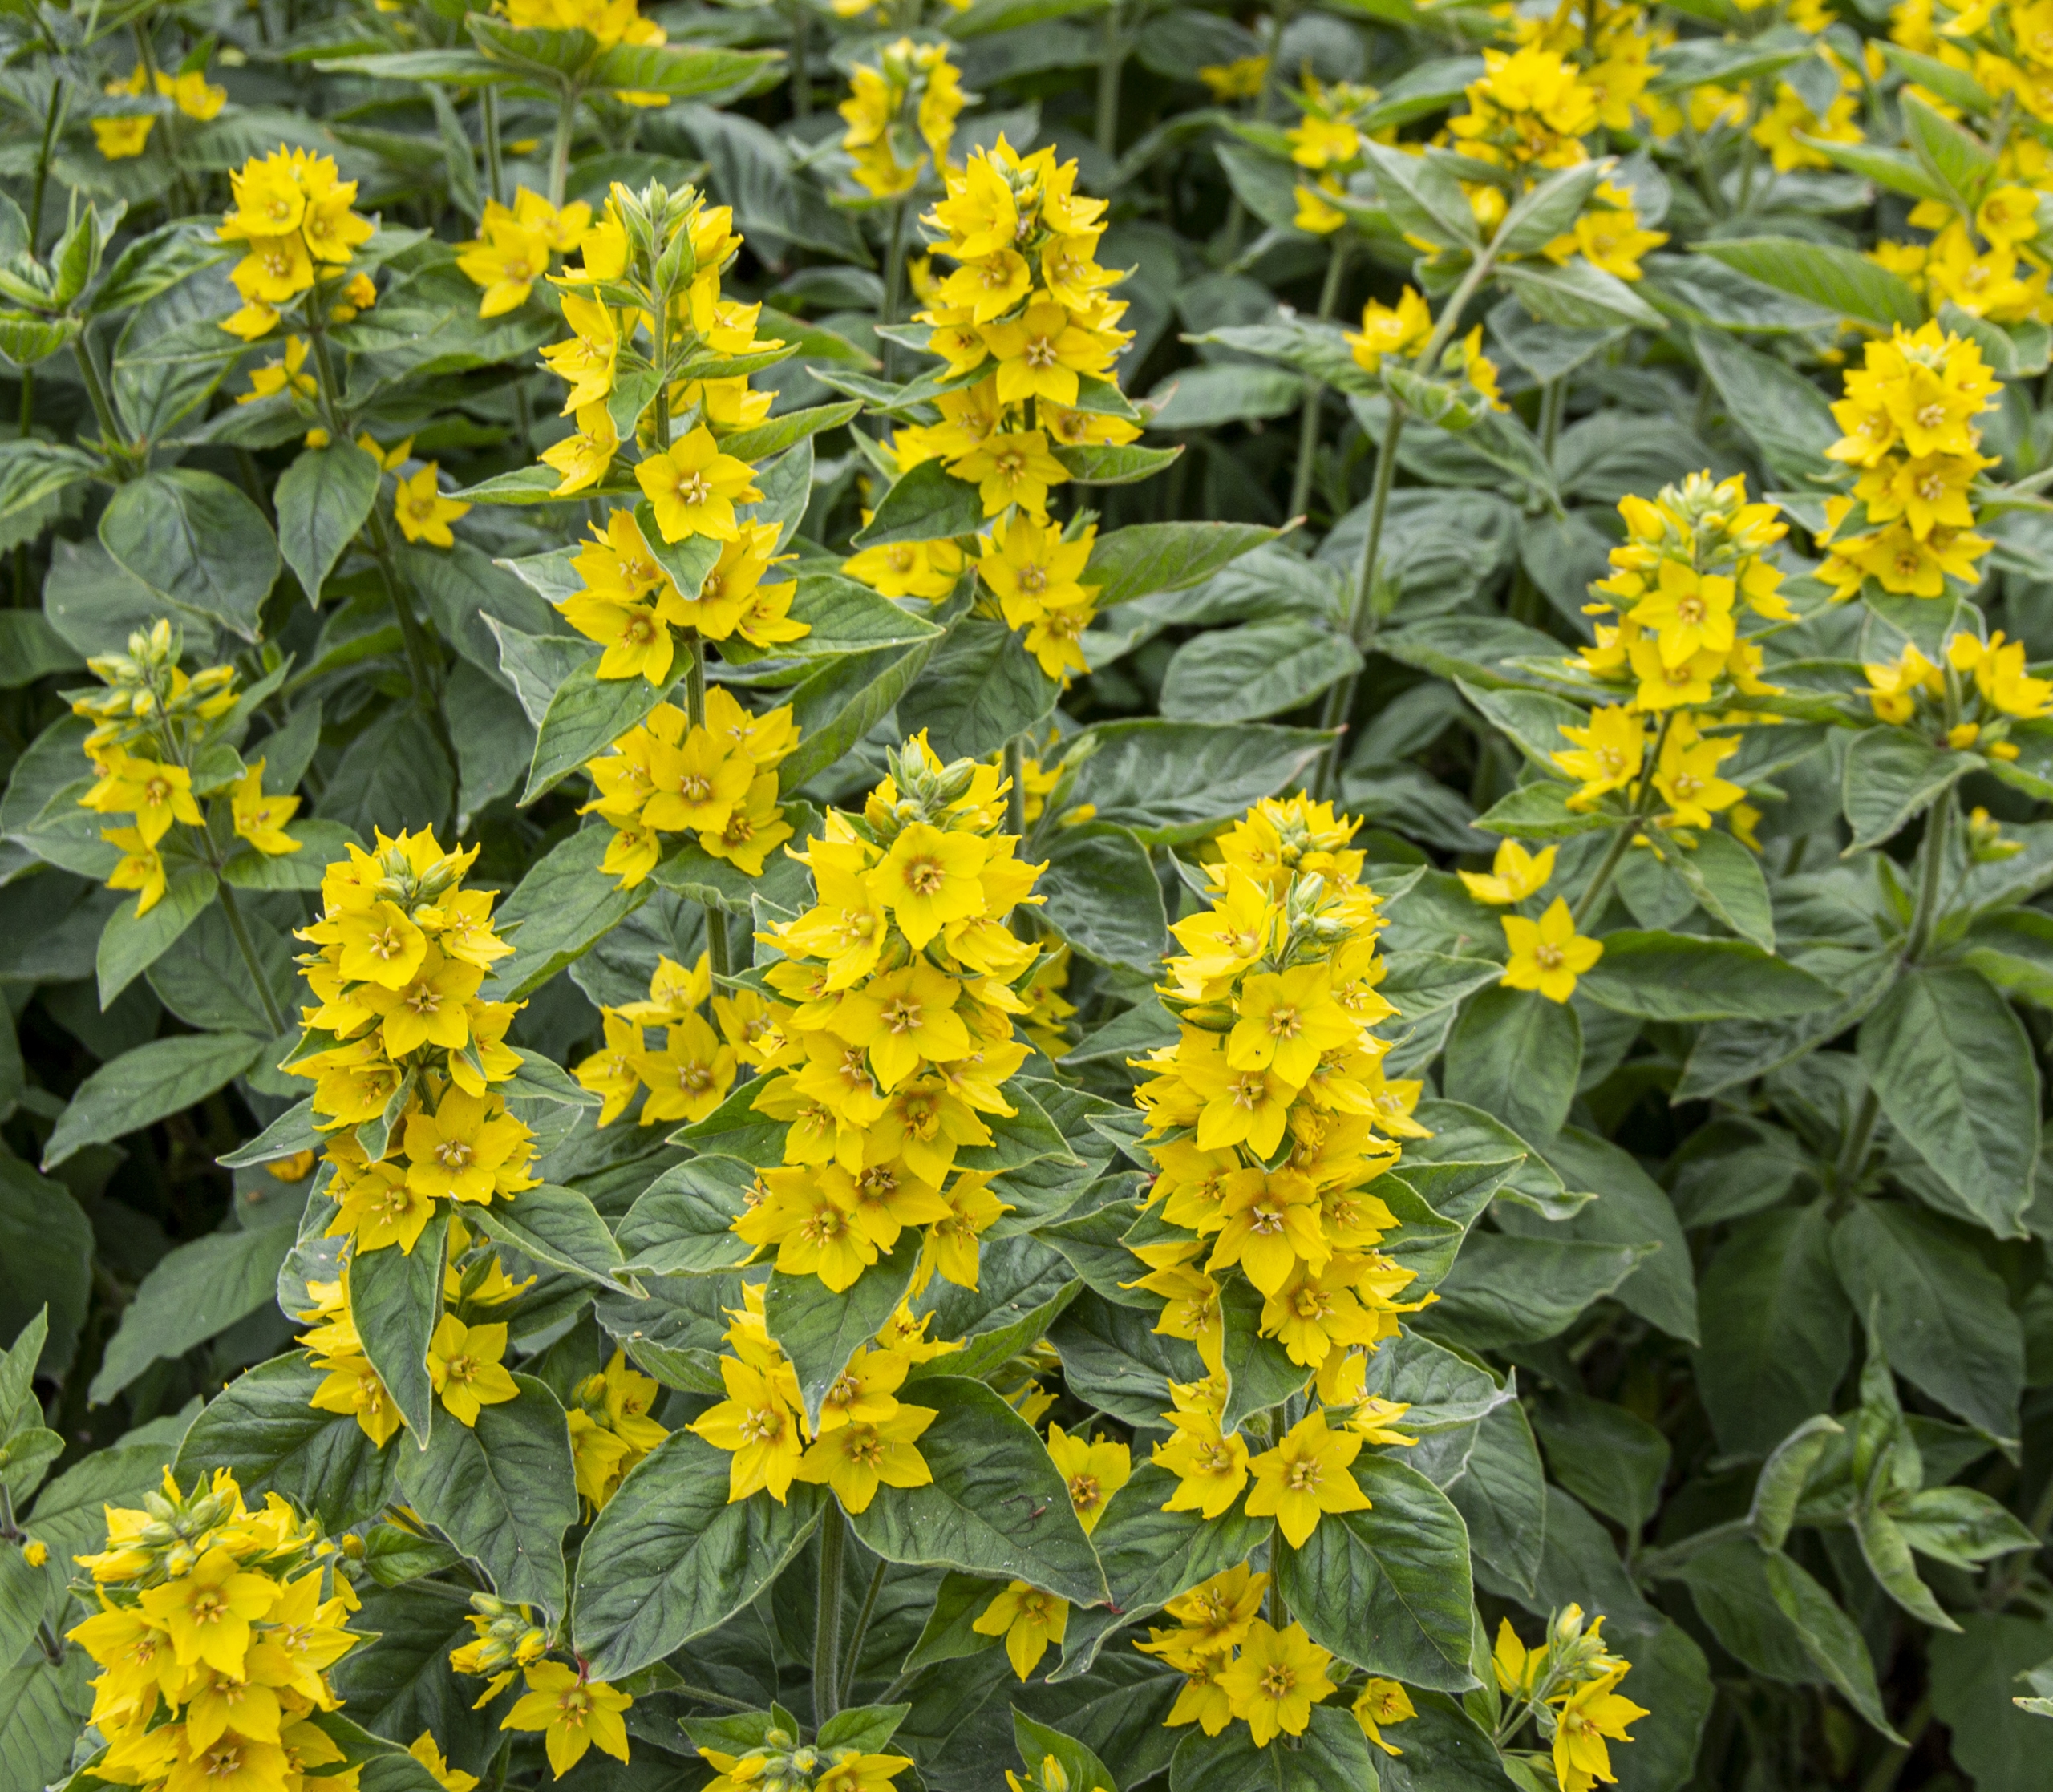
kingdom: Plantae
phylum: Tracheophyta
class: Magnoliopsida
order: Ericales
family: Primulaceae
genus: Lysimachia
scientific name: Lysimachia punctata
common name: Prikbladet fredløs
